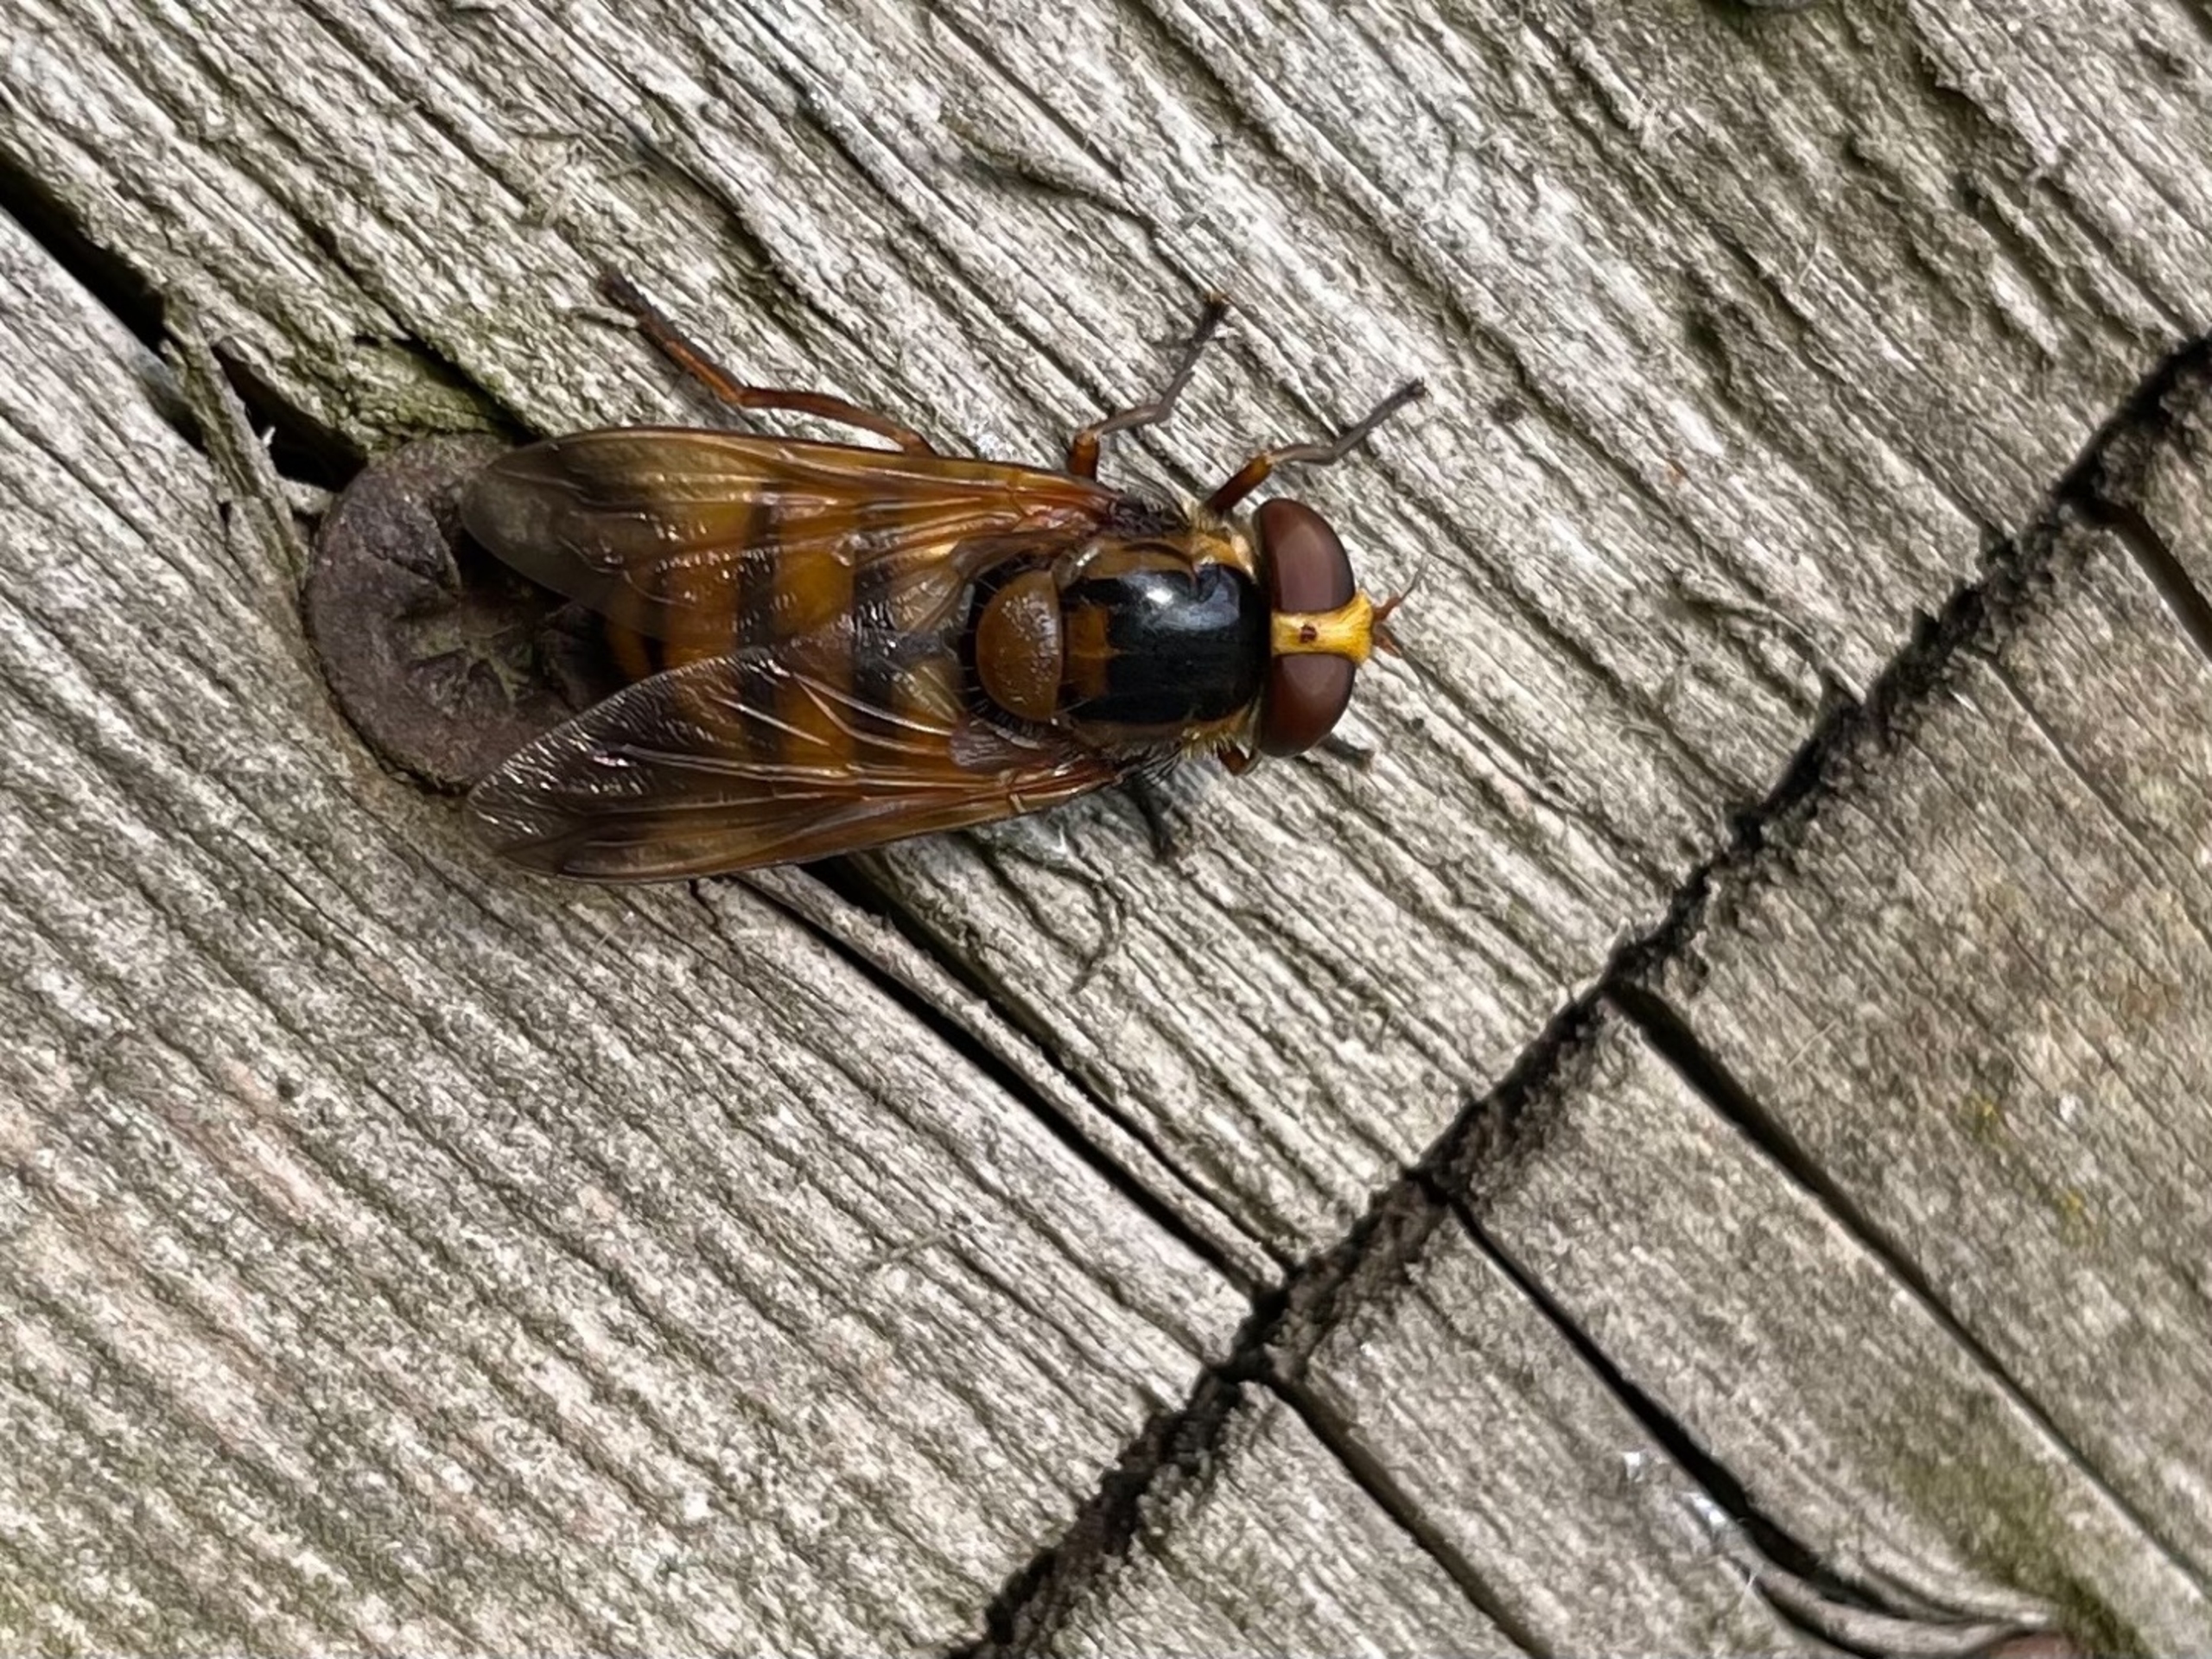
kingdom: Animalia
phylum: Arthropoda
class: Insecta
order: Diptera
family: Syrphidae
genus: Volucella
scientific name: Volucella inanis
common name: Gul humlesvirreflue
